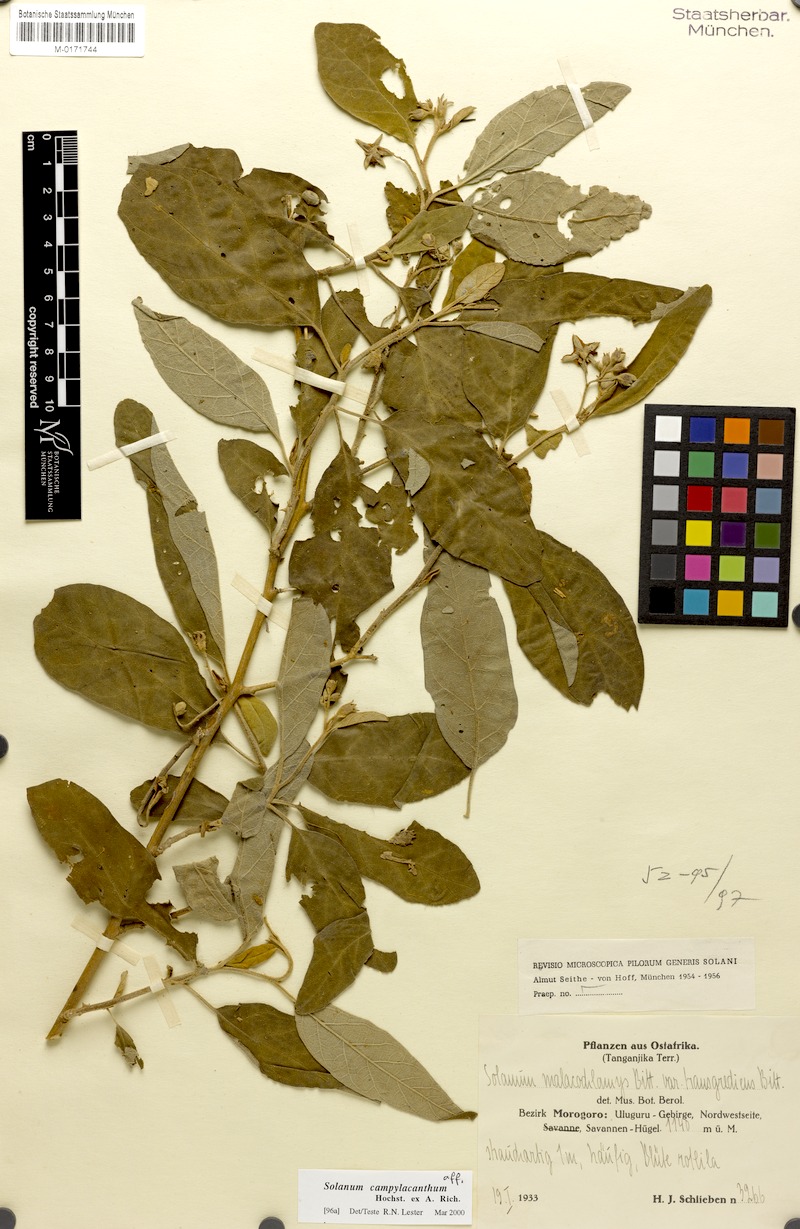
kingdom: Plantae
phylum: Tracheophyta
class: Magnoliopsida
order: Solanales
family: Solanaceae
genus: Solanum
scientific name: Solanum campylacanthum
